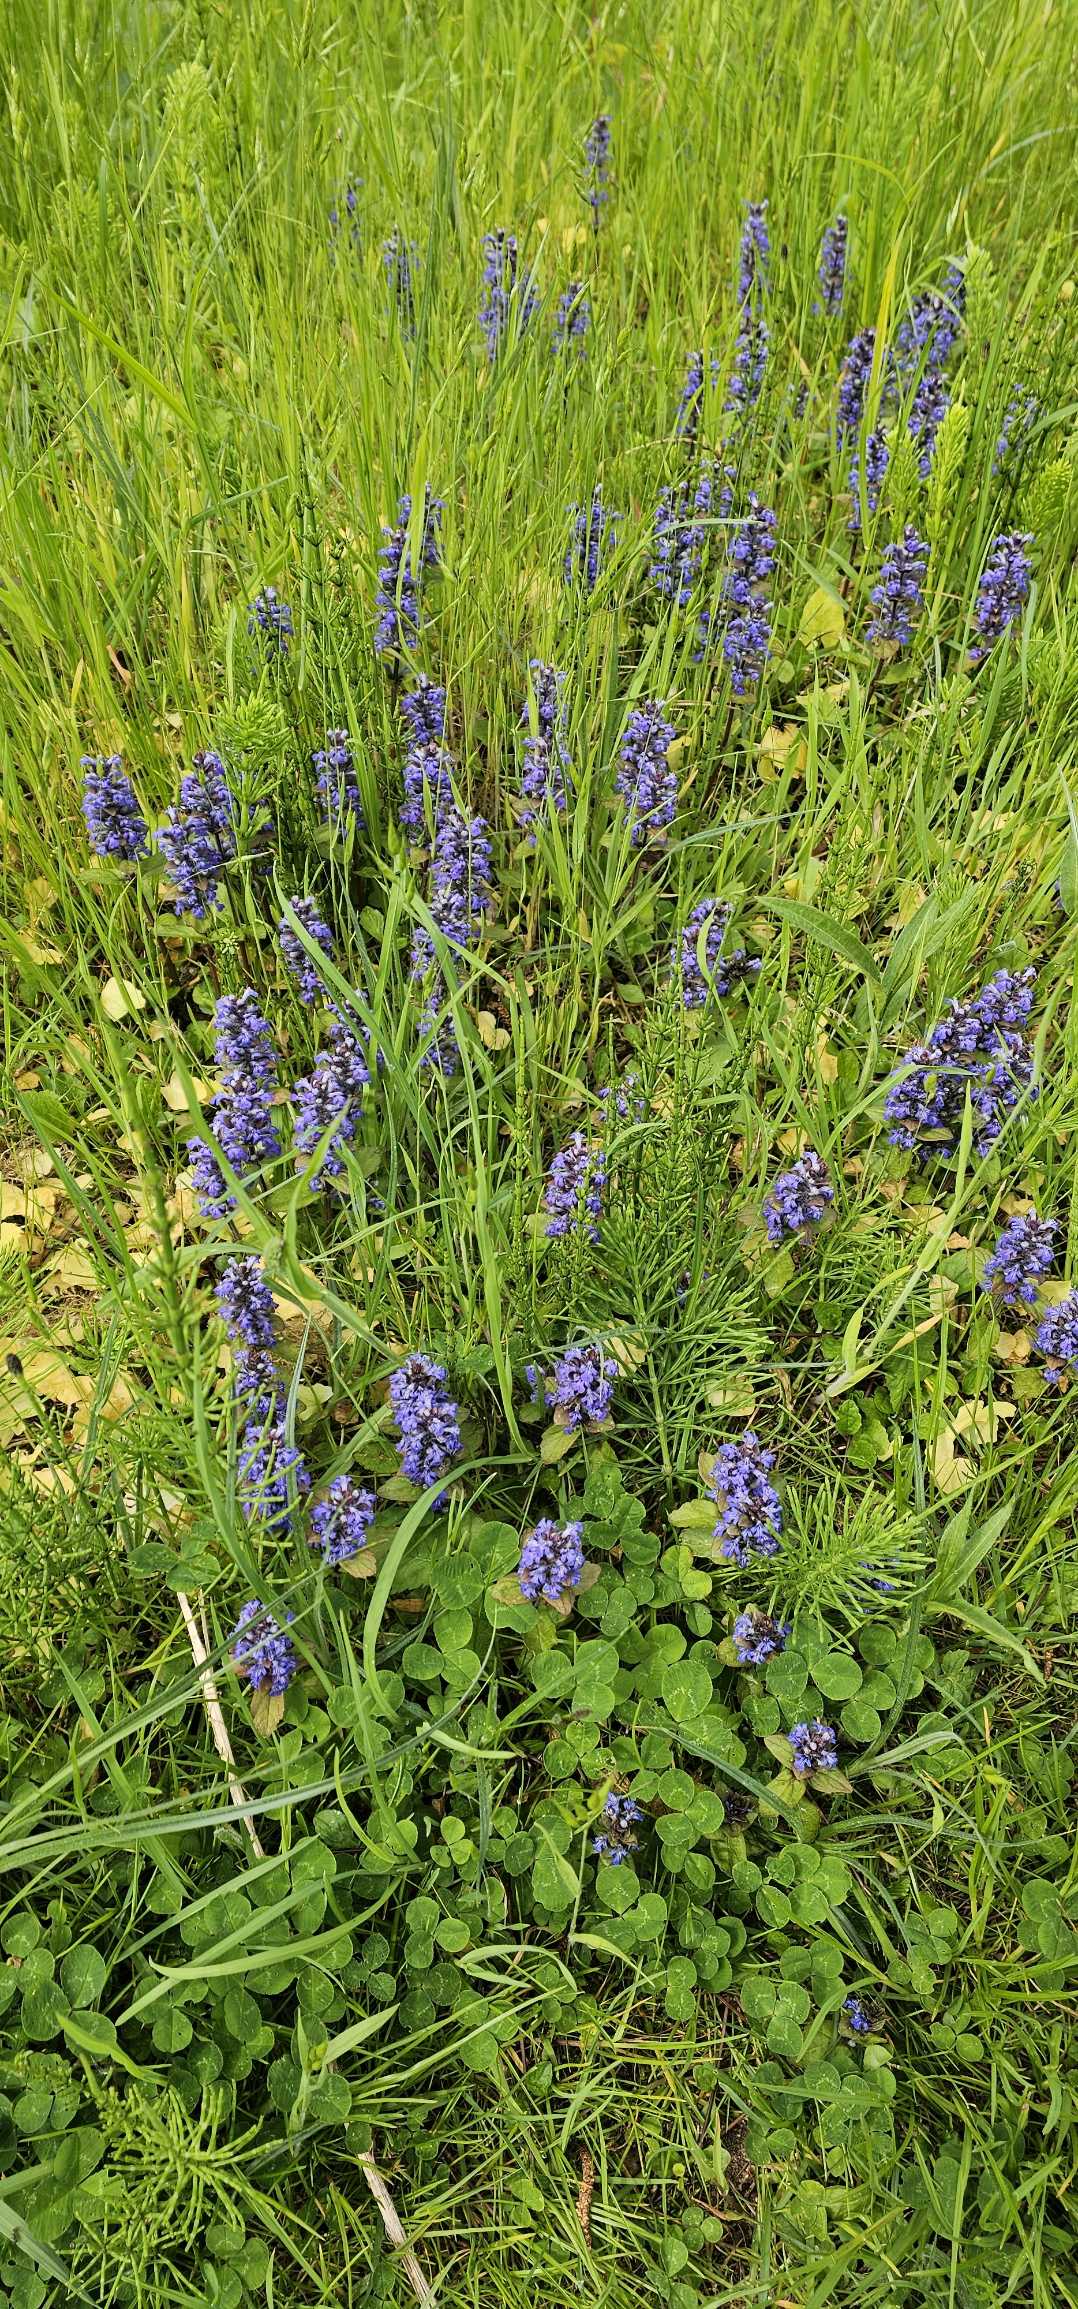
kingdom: Plantae
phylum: Tracheophyta
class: Magnoliopsida
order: Lamiales
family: Lamiaceae
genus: Ajuga
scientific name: Ajuga reptans
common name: Krybende læbeløs
